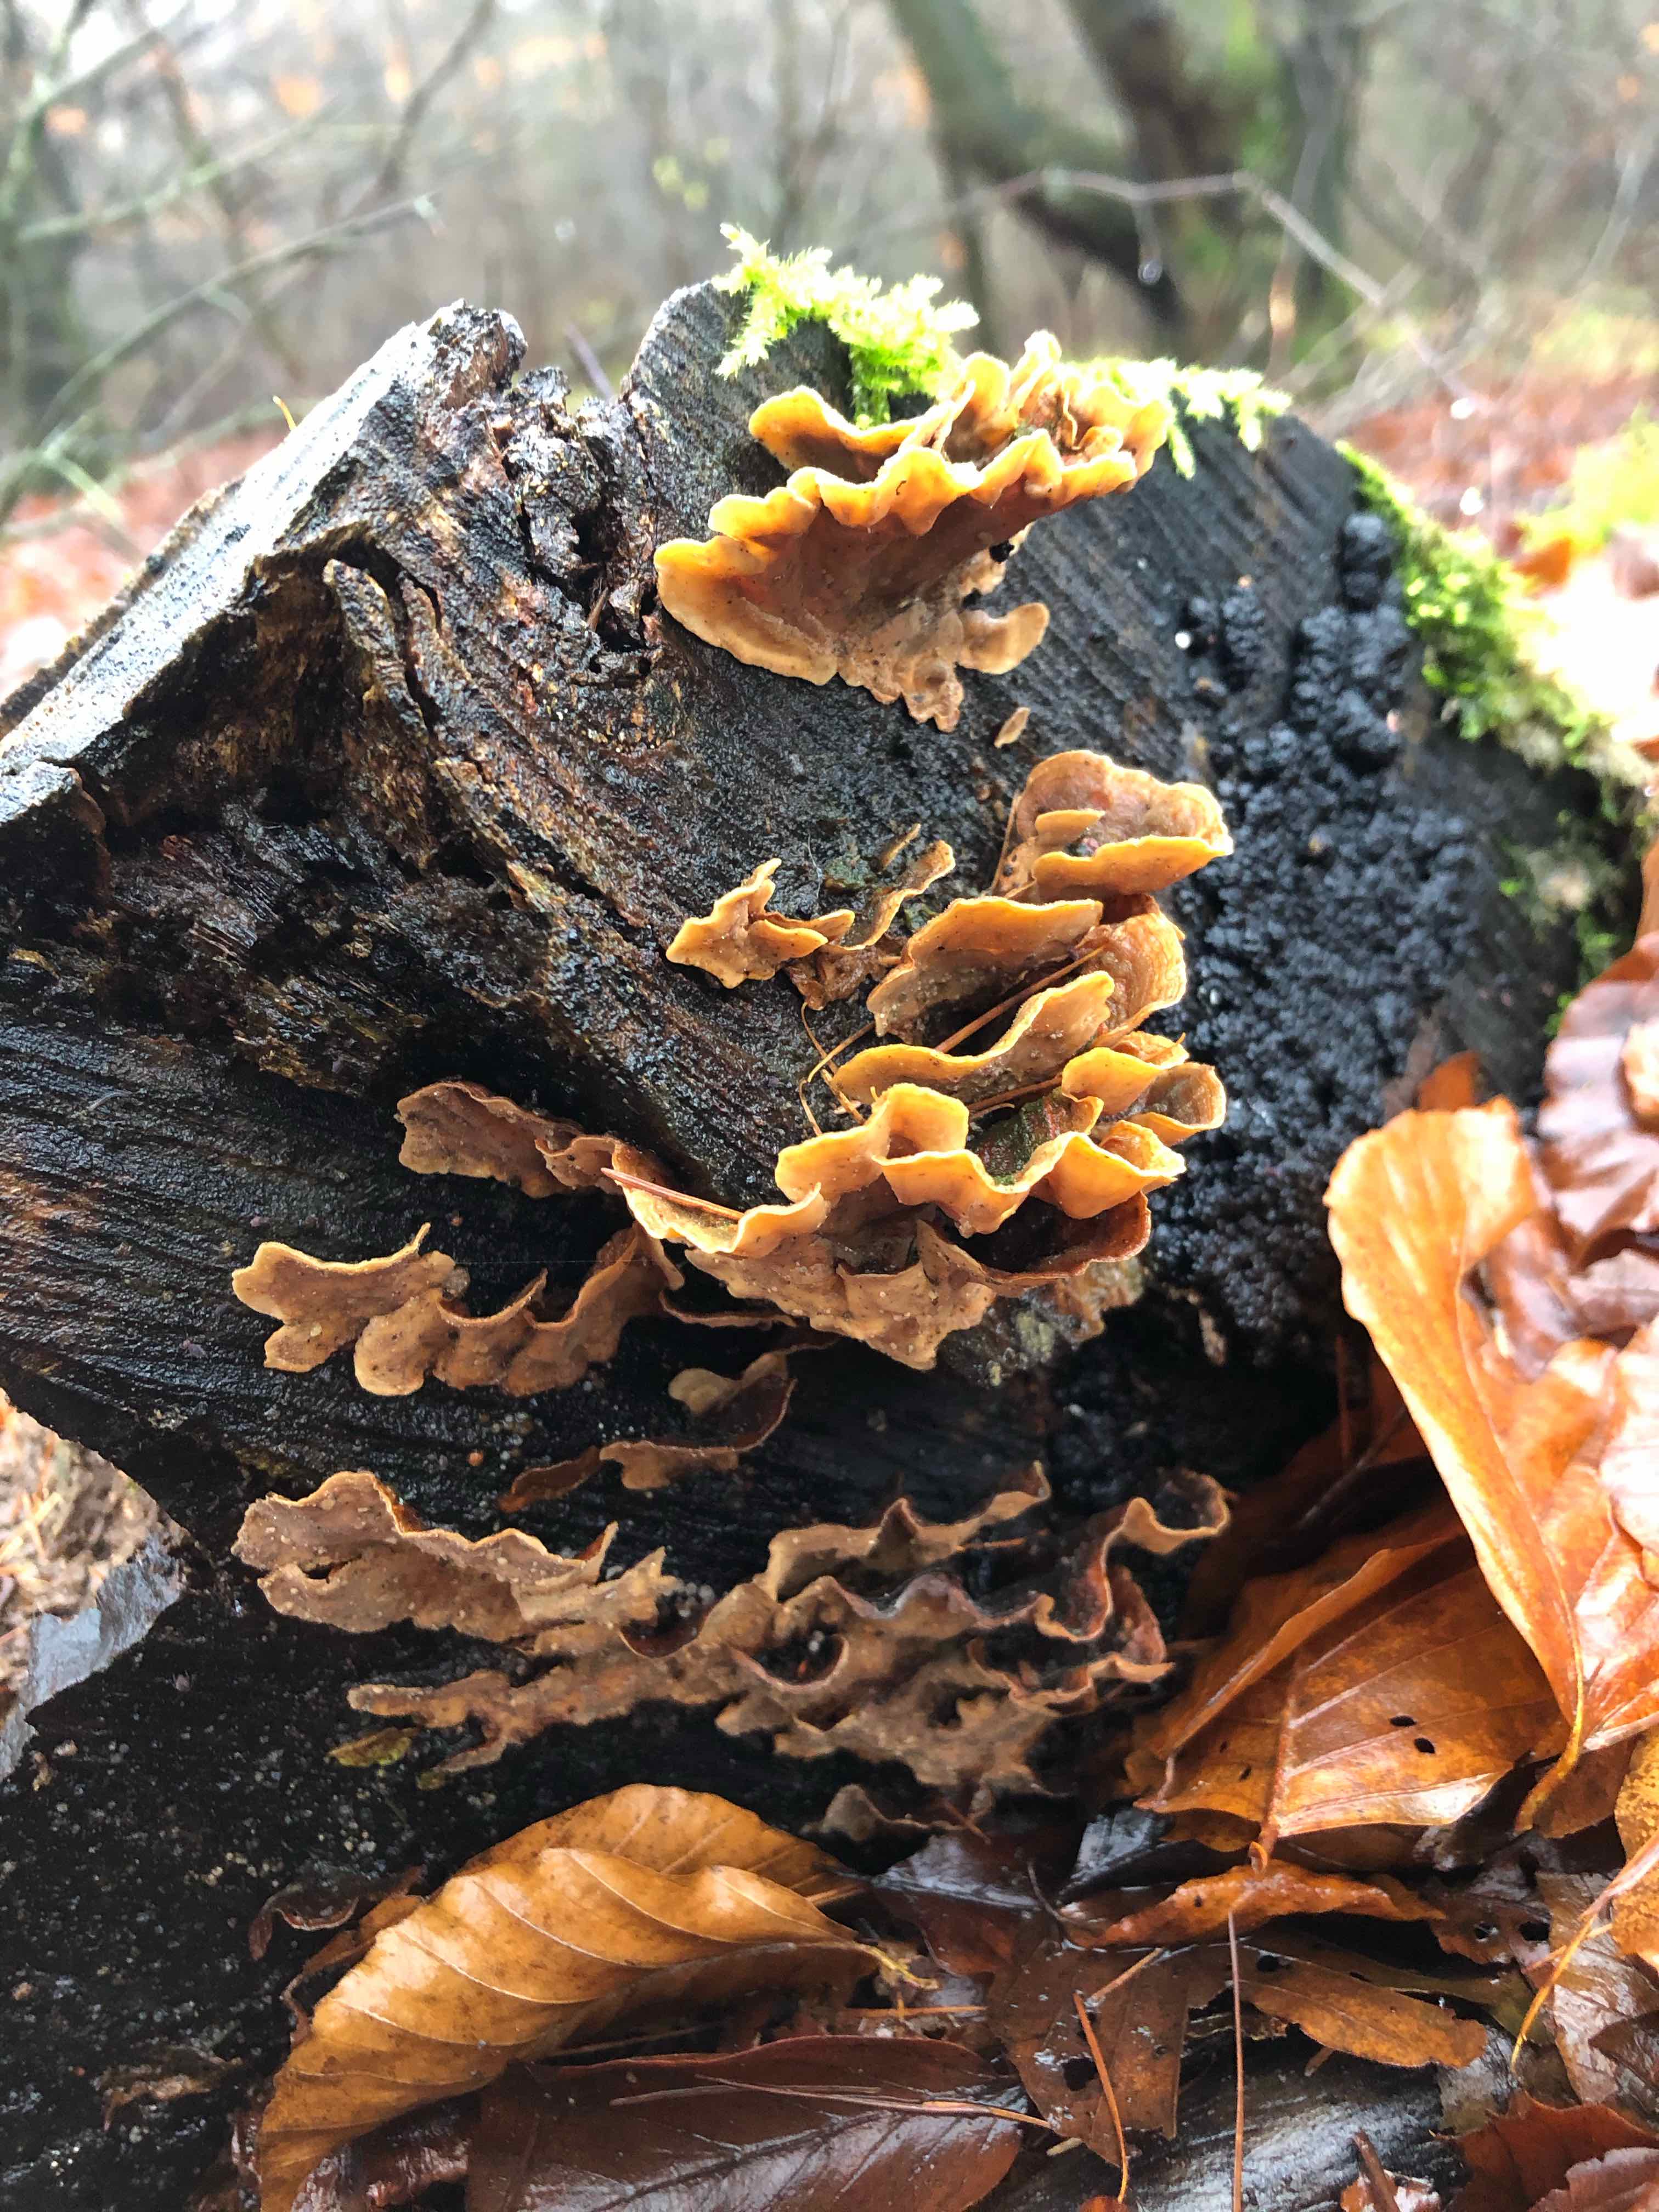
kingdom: Fungi
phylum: Basidiomycota
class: Agaricomycetes
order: Russulales
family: Stereaceae
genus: Stereum
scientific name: Stereum hirsutum
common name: håret lædersvamp
